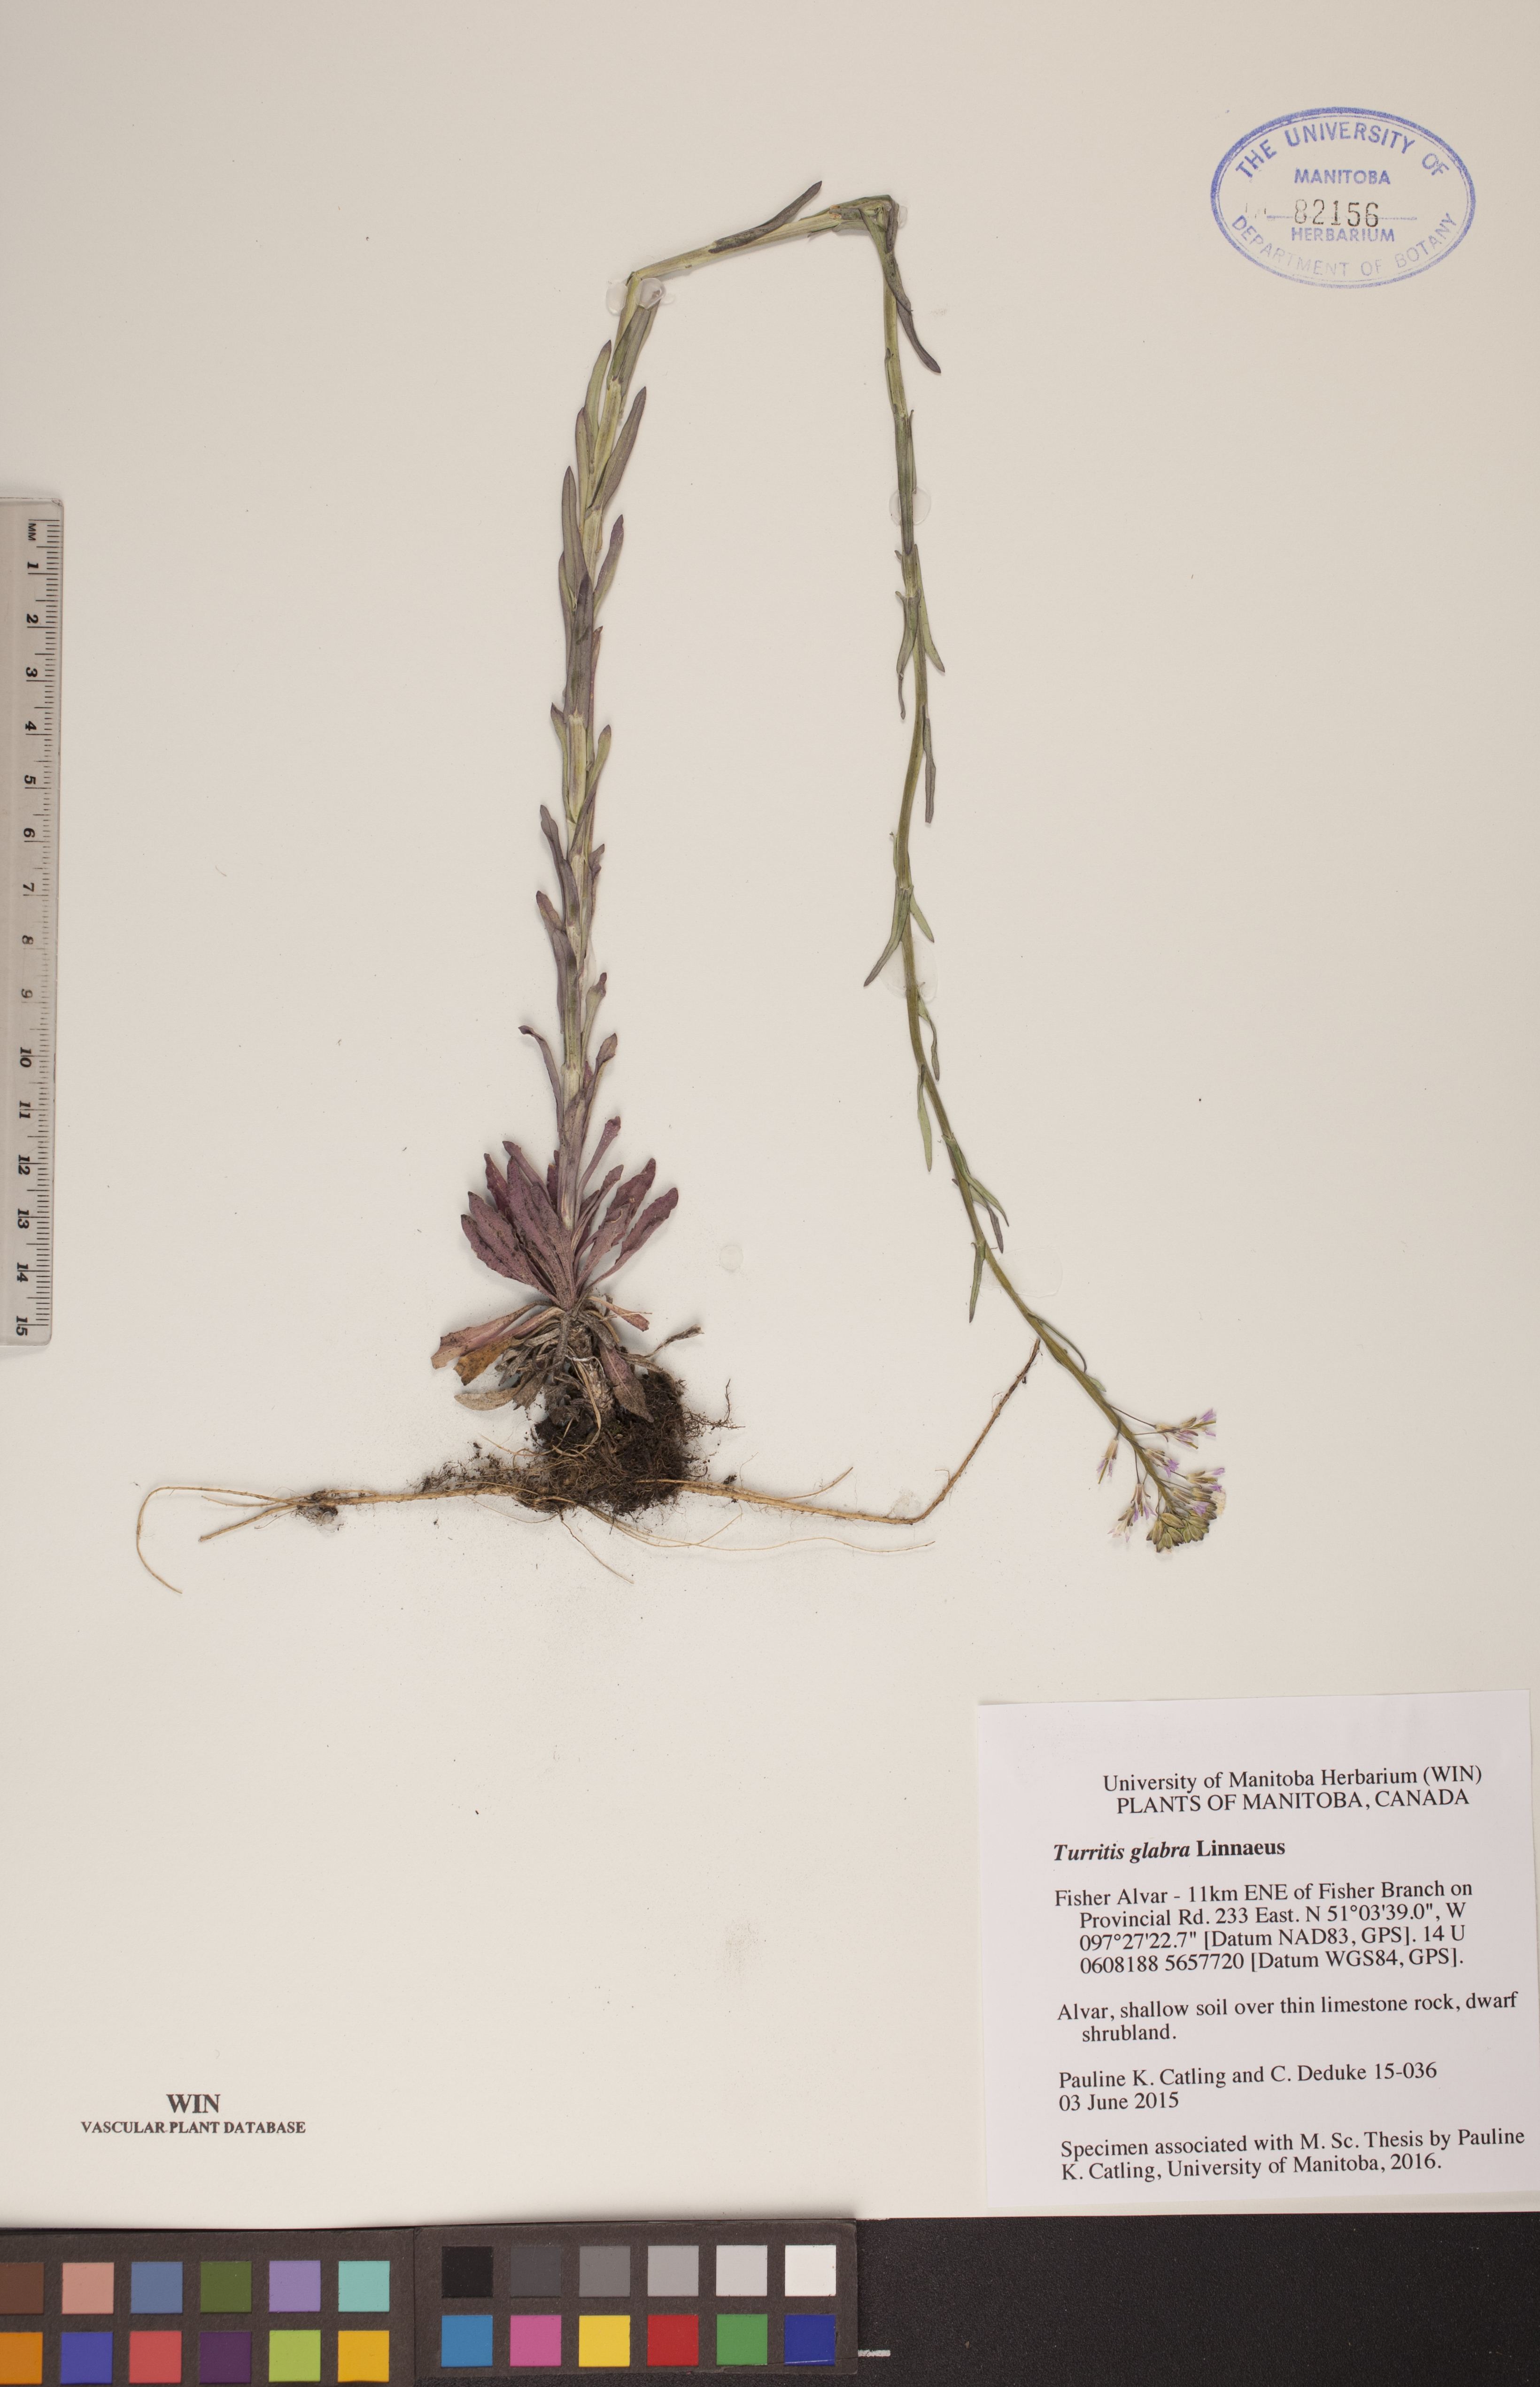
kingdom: Plantae
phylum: Tracheophyta
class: Magnoliopsida
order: Brassicales
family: Brassicaceae
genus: Turritis
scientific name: Turritis glabra
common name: Tower rockcress
